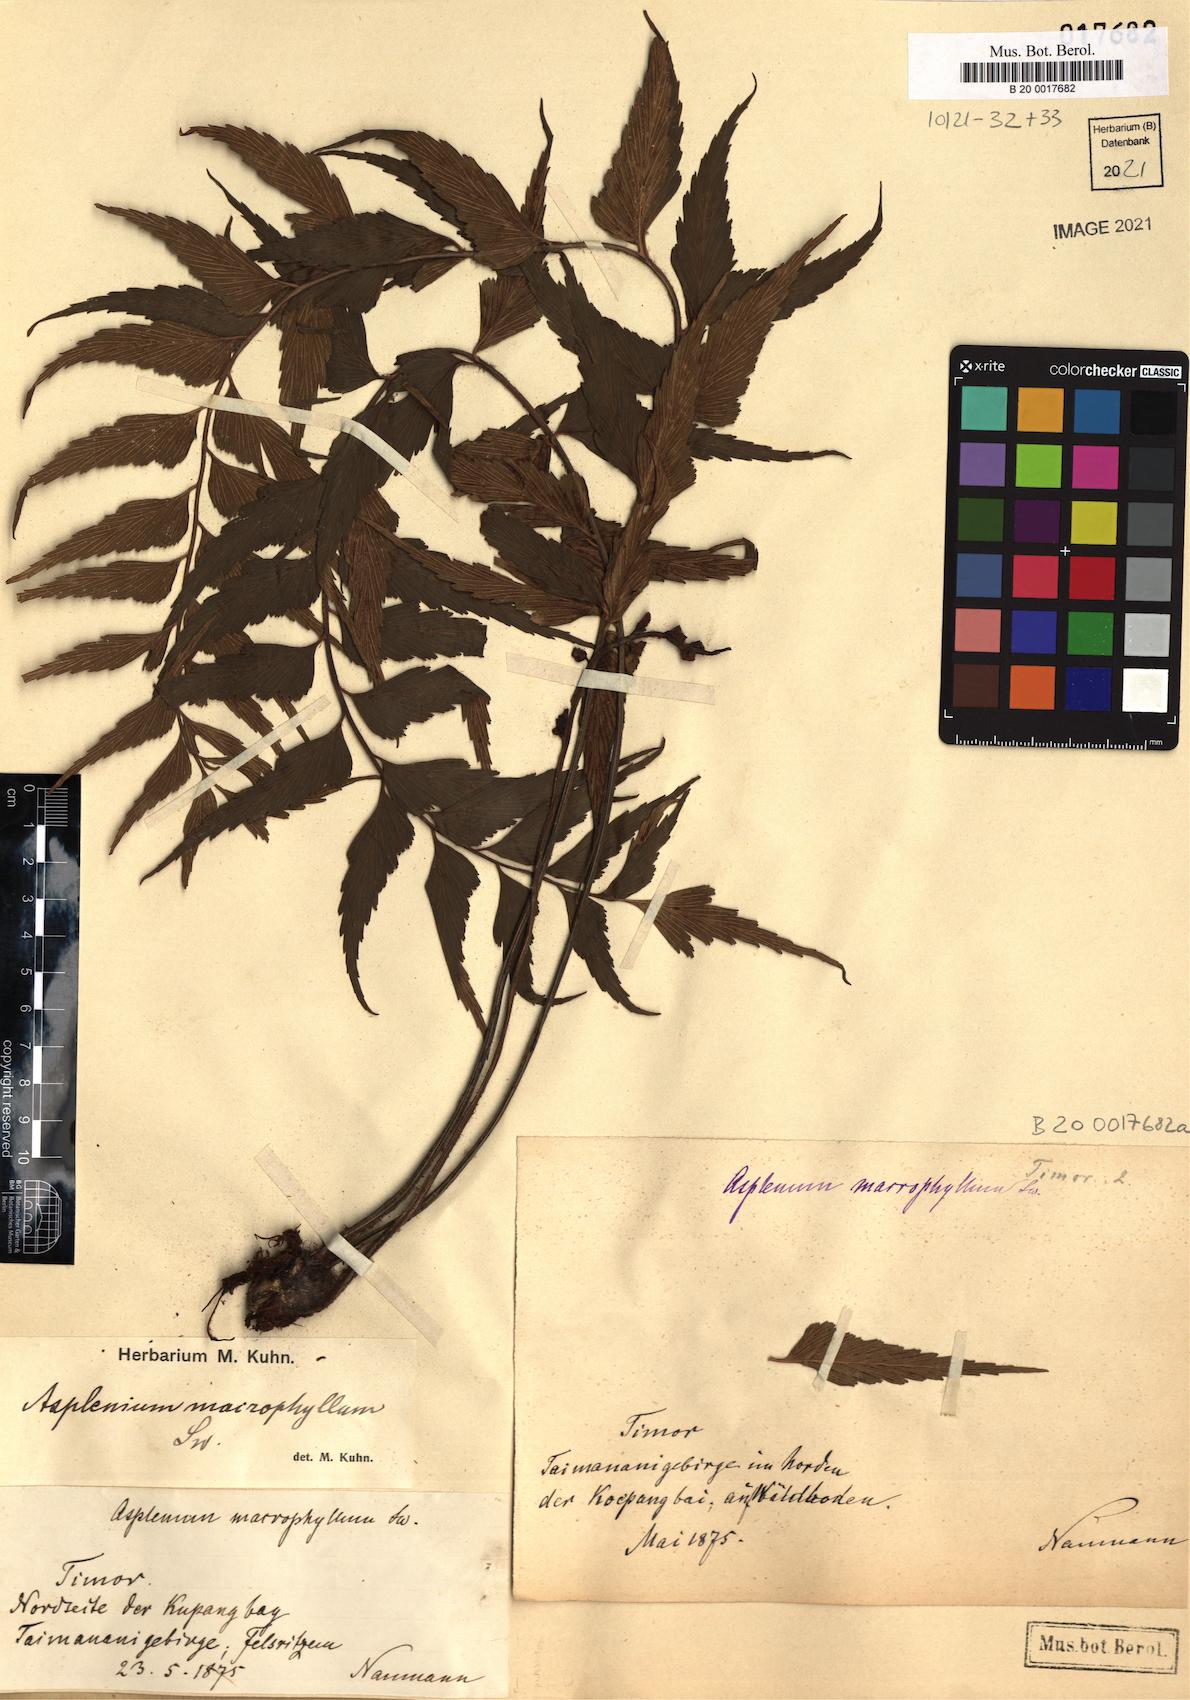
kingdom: Plantae
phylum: Tracheophyta
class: Polypodiopsida
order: Polypodiales
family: Aspleniaceae
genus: Asplenium
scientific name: Asplenium macrophyllum
